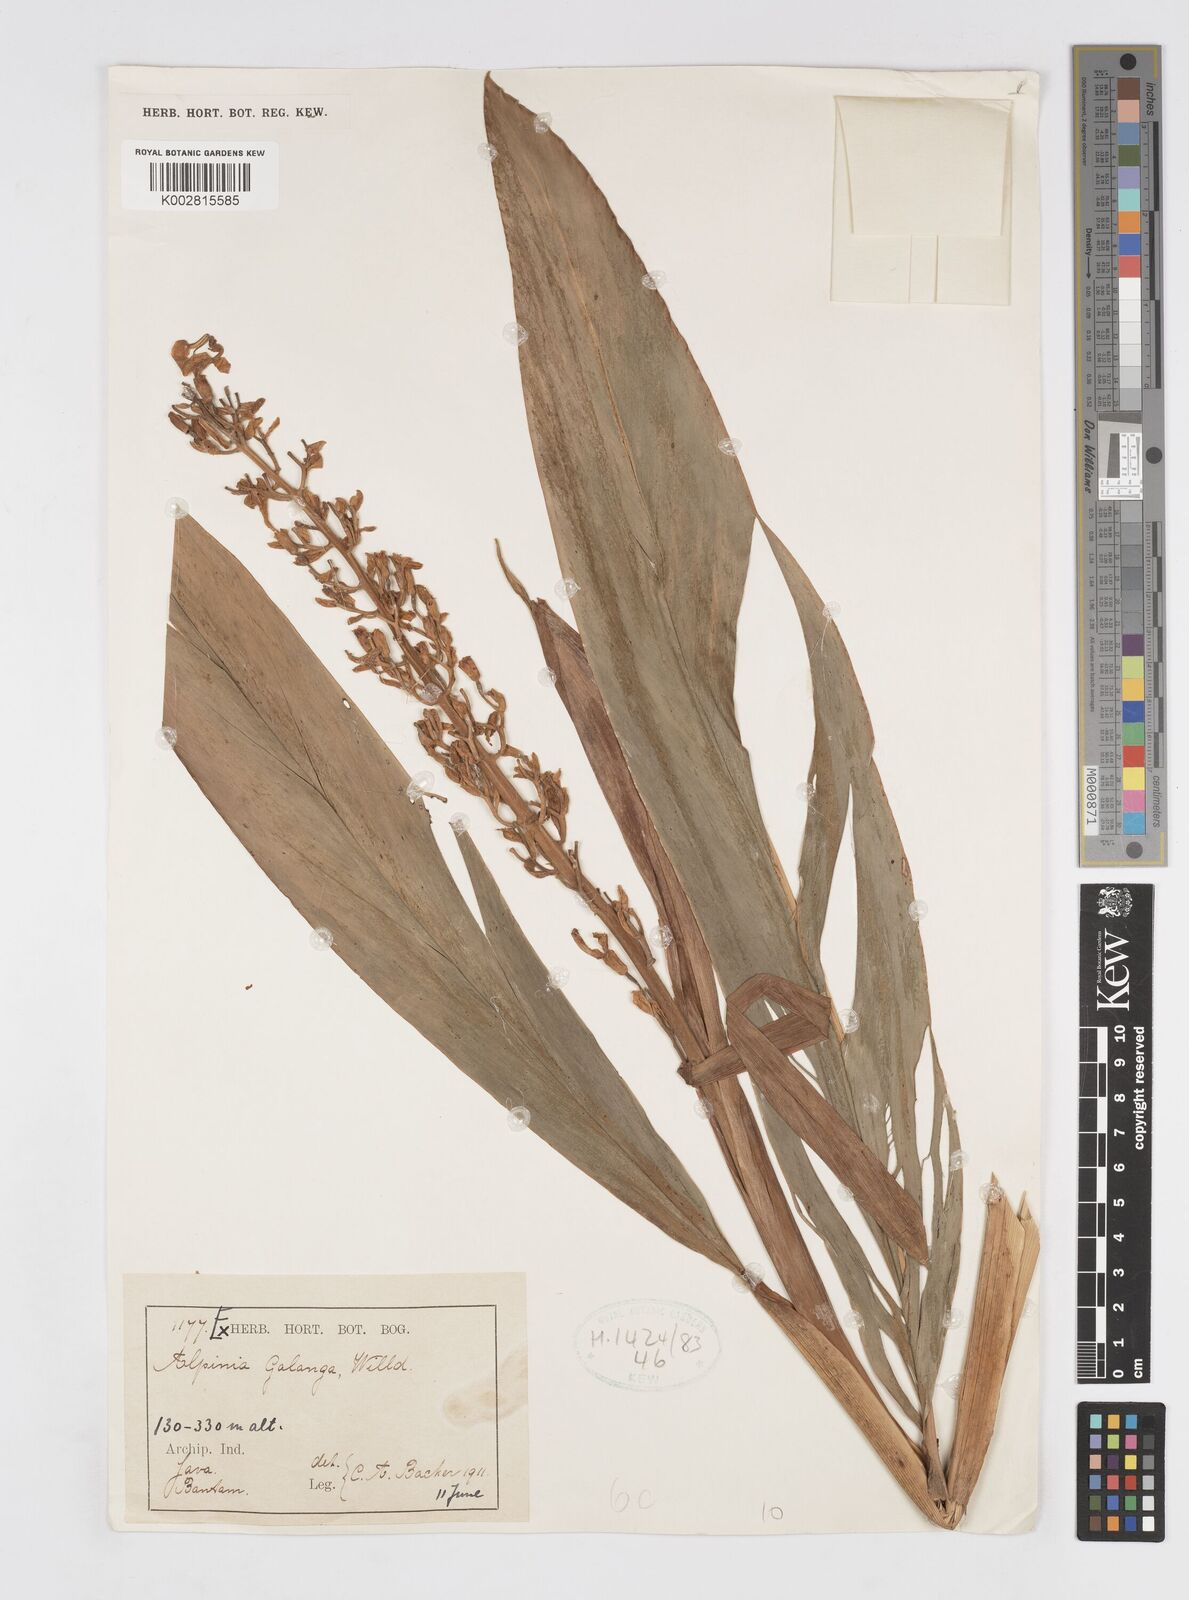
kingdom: Plantae
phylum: Tracheophyta
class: Liliopsida
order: Zingiberales
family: Zingiberaceae
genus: Alpinia
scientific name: Alpinia galanga
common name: Siamese-ginger
